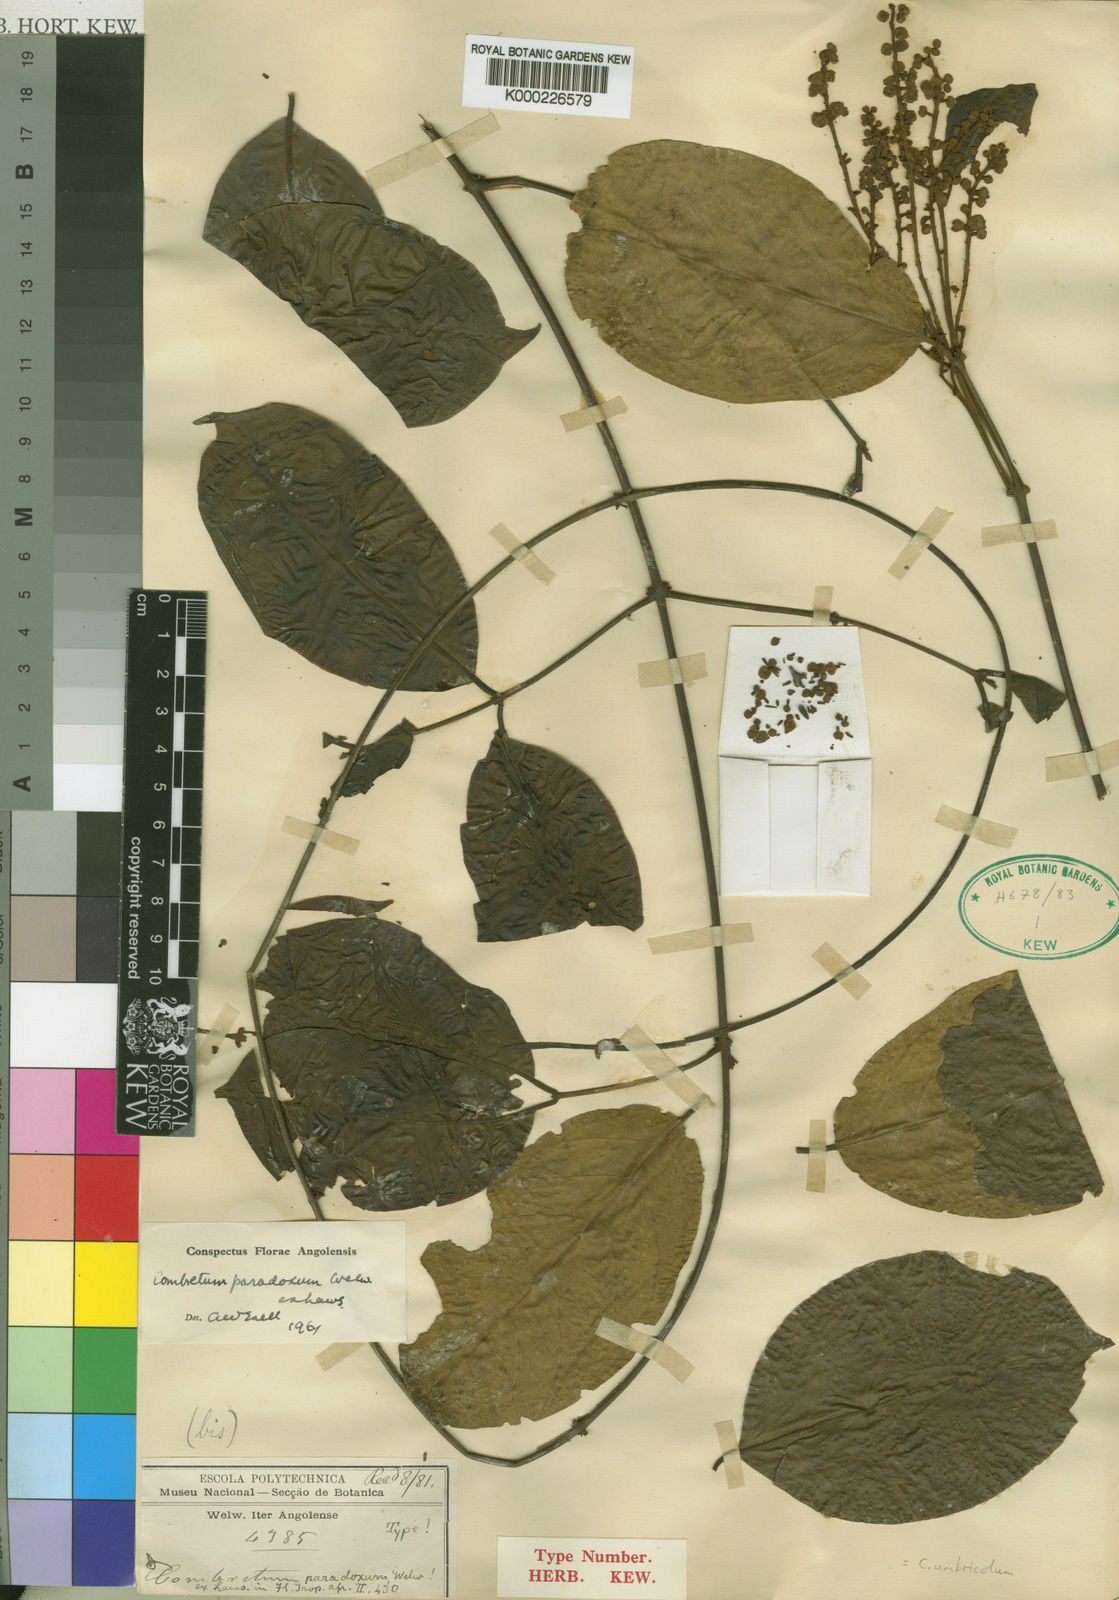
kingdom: Plantae
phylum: Tracheophyta
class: Magnoliopsida
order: Myrtales
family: Combretaceae
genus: Combretum
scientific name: Combretum paradoxum
